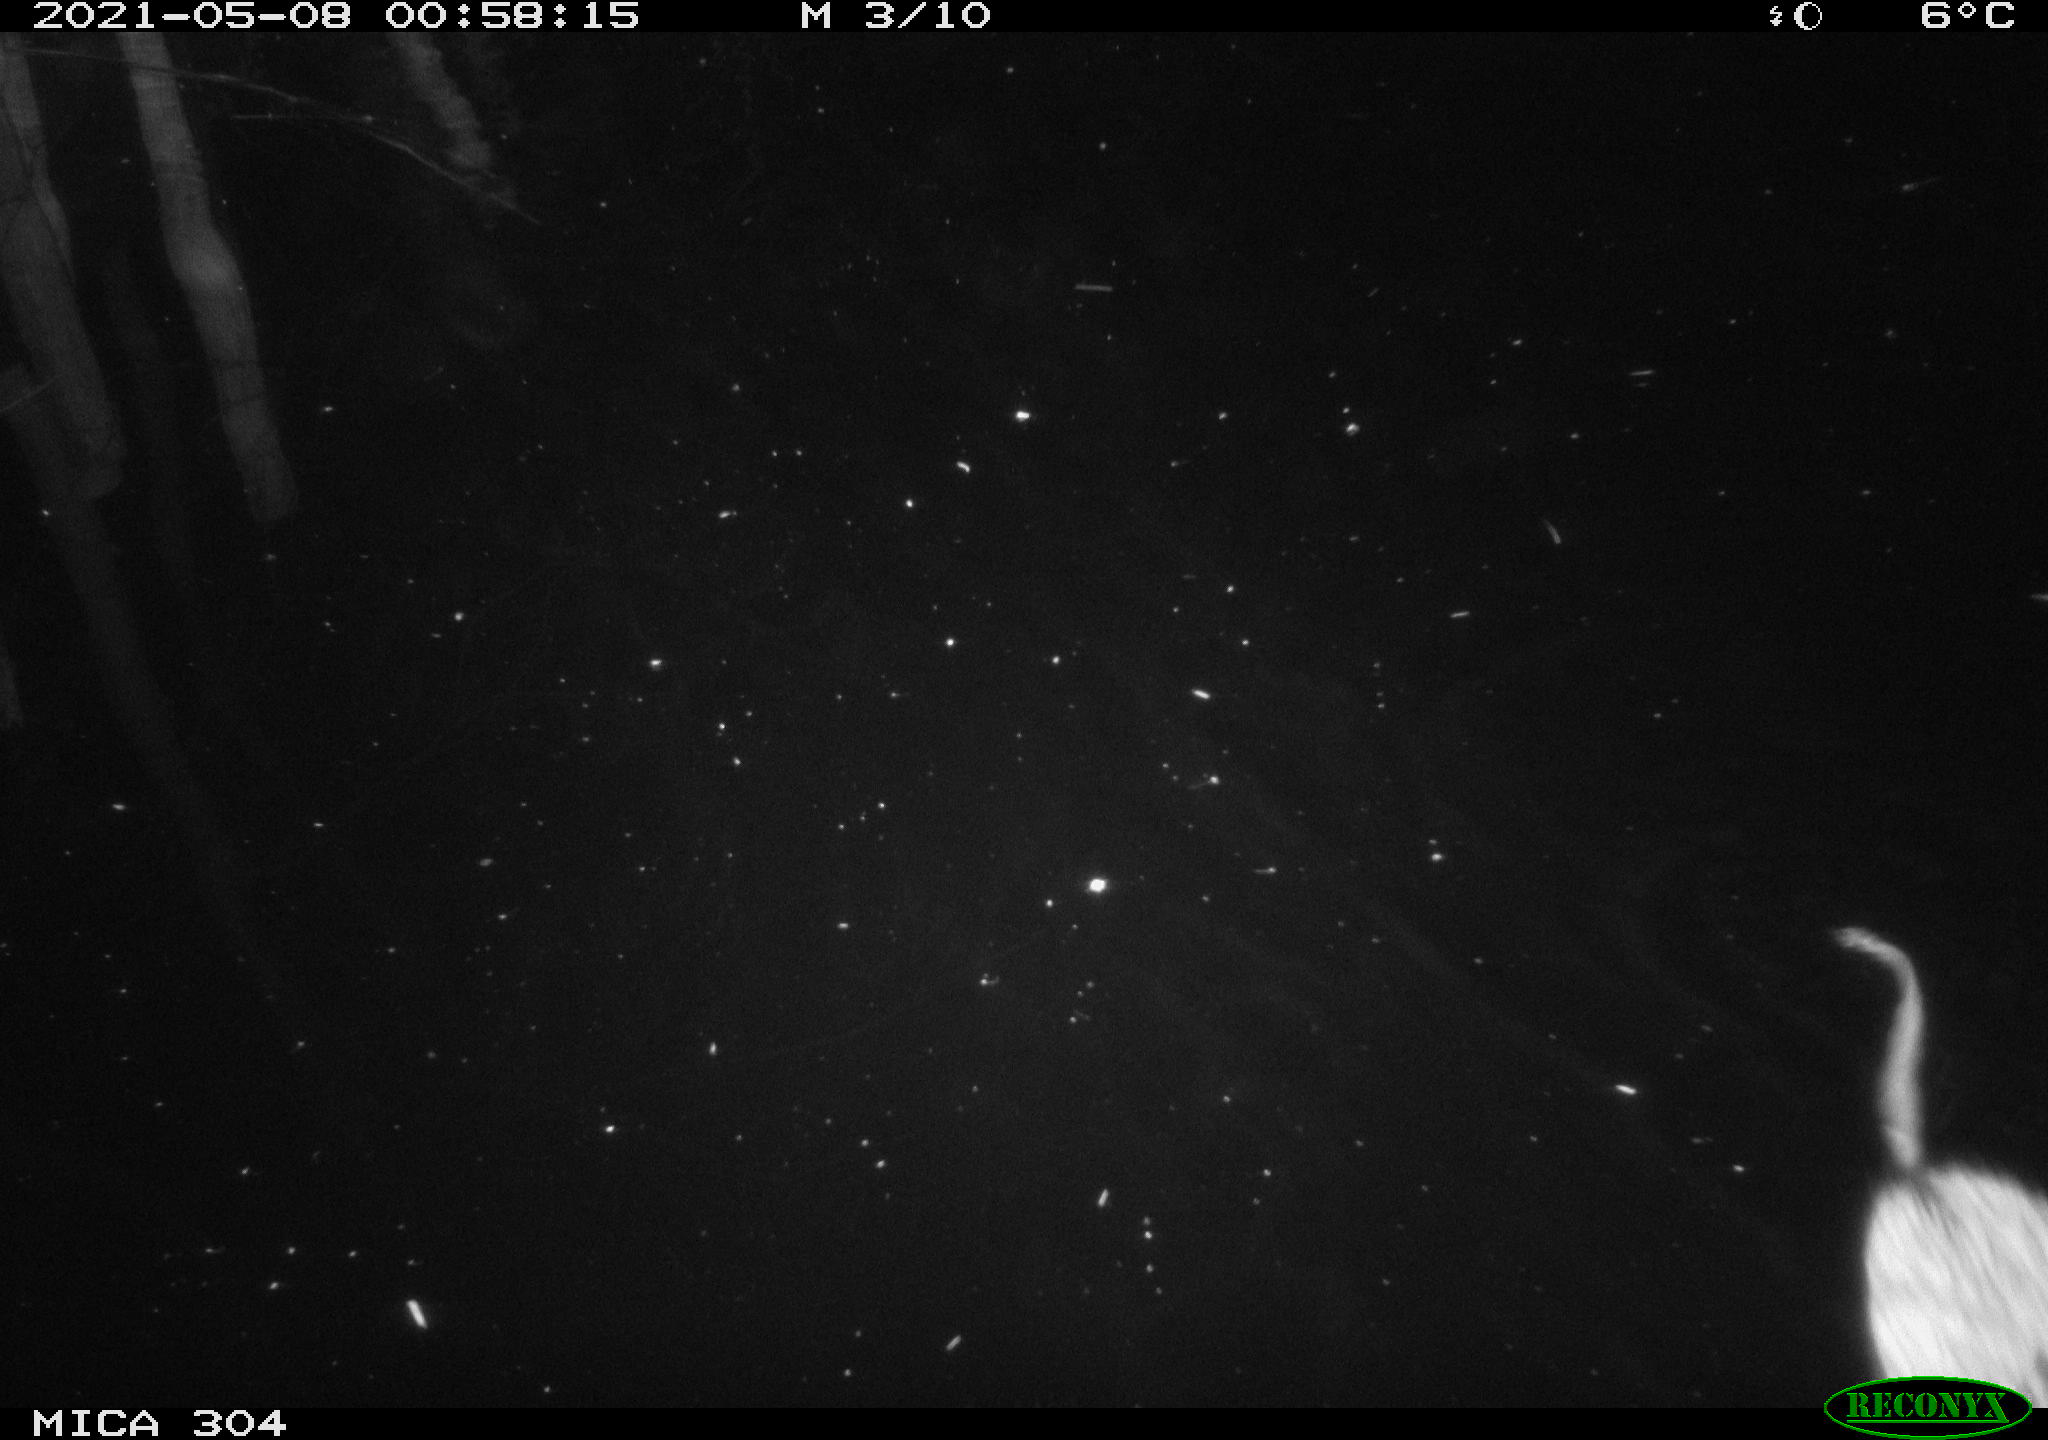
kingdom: Animalia
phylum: Chordata
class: Mammalia
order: Rodentia
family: Cricetidae
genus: Ondatra
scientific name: Ondatra zibethicus
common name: Muskrat
